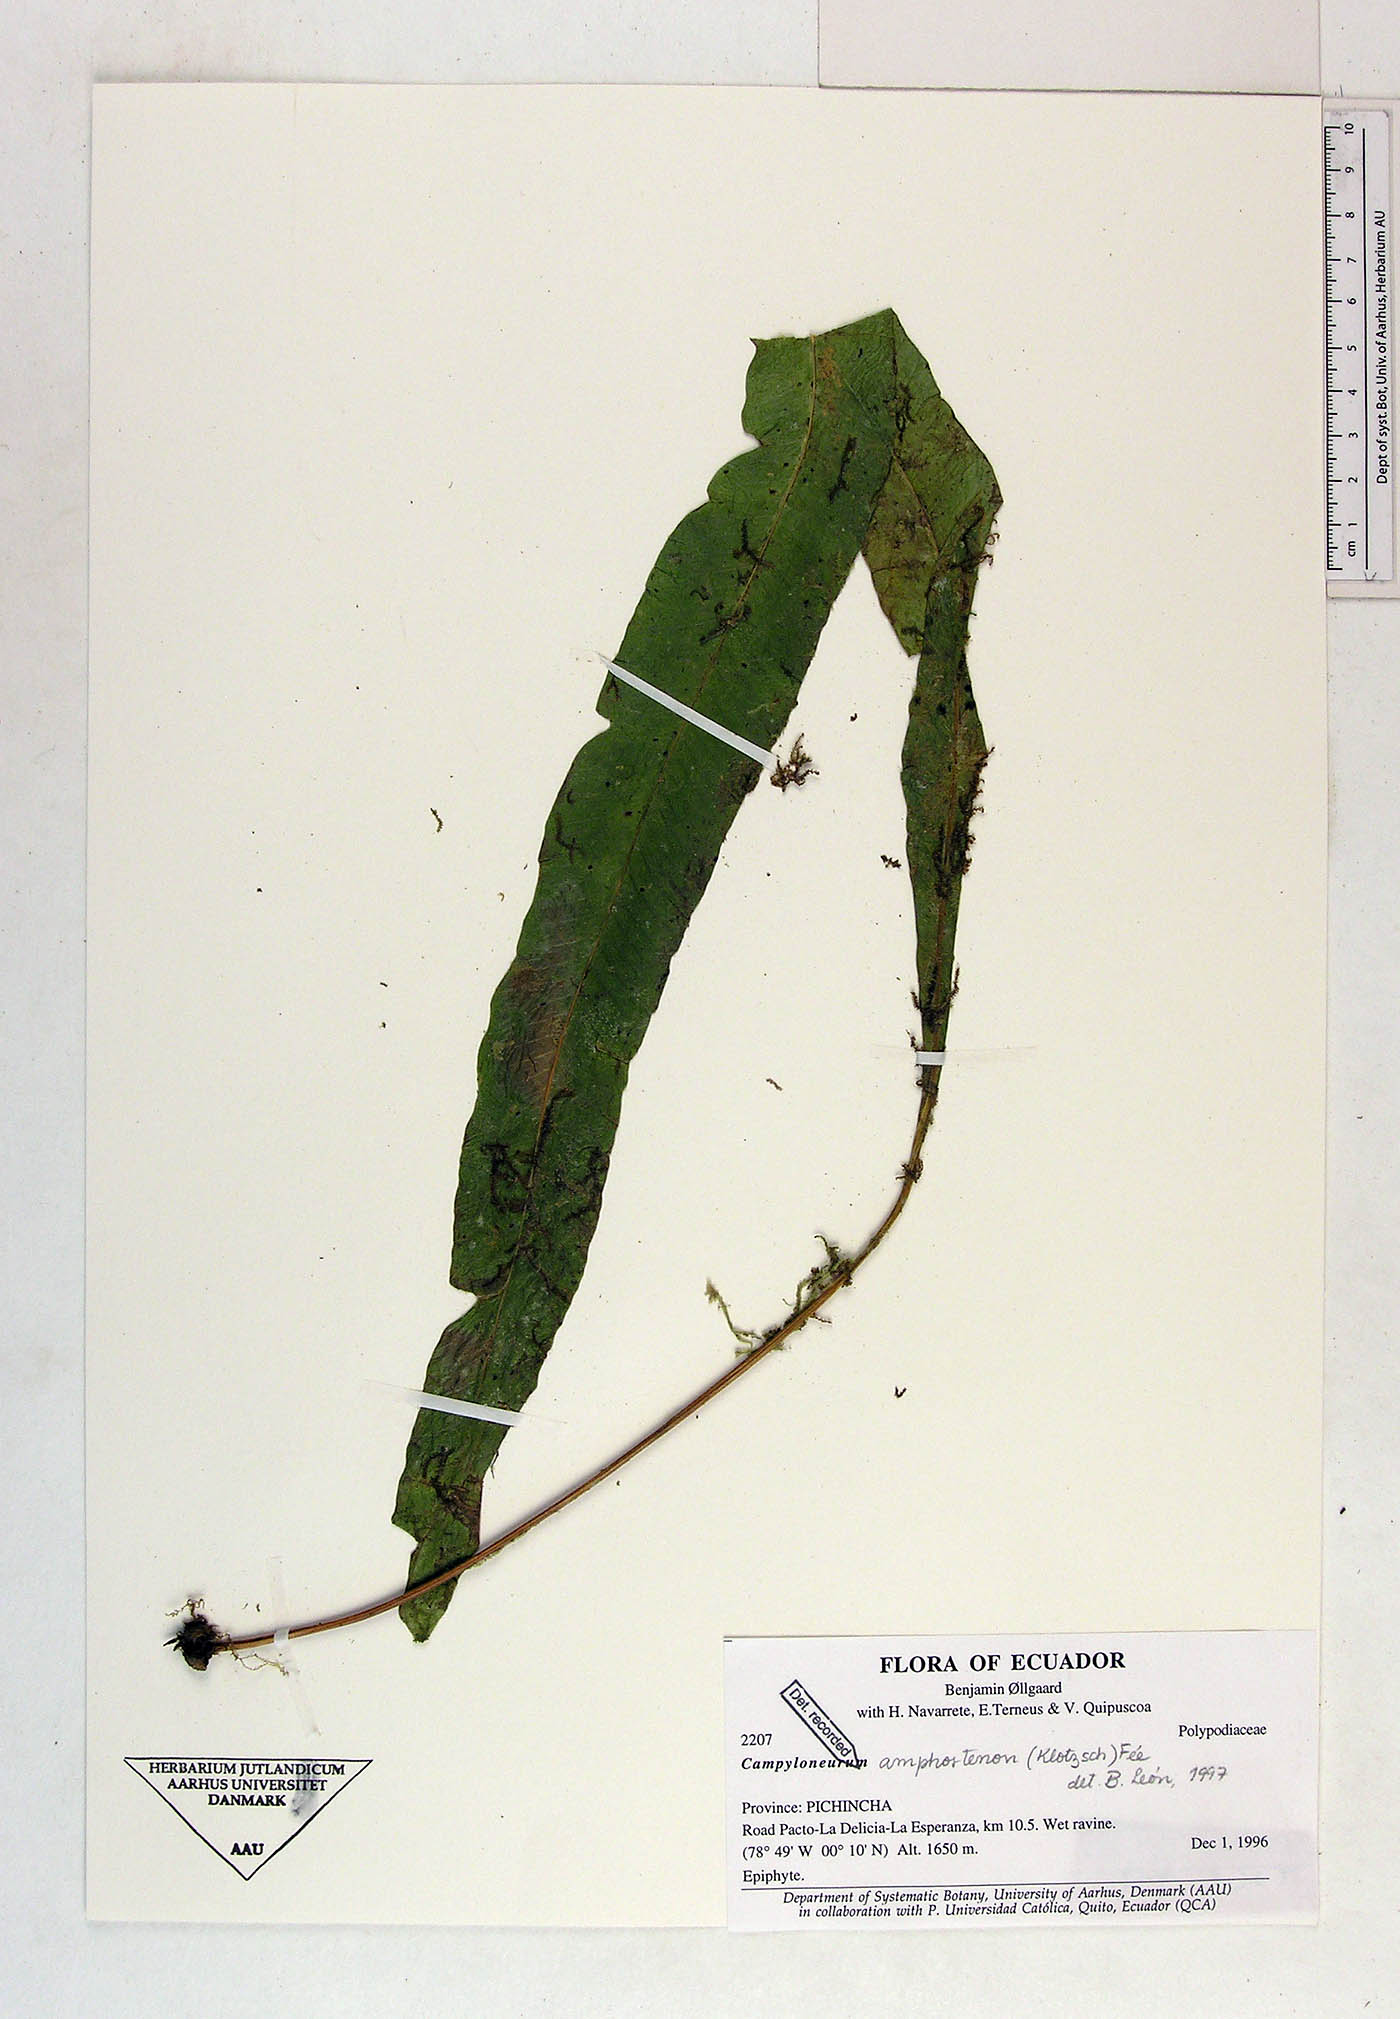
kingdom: Plantae
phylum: Tracheophyta
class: Polypodiopsida
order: Polypodiales
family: Polypodiaceae
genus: Campyloneurum
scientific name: Campyloneurum amphostenon
